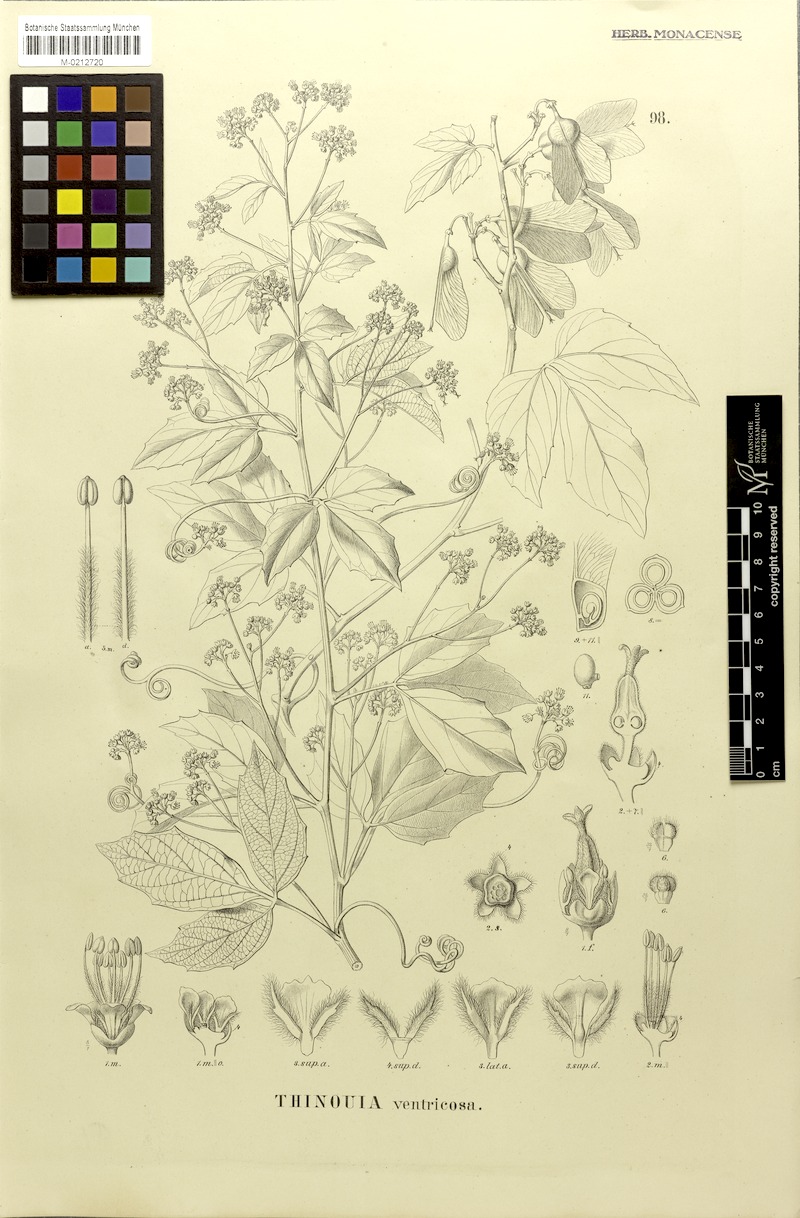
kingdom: Plantae
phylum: Tracheophyta
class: Magnoliopsida
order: Sapindales
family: Sapindaceae
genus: Thinouia
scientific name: Thinouia ventricosa
